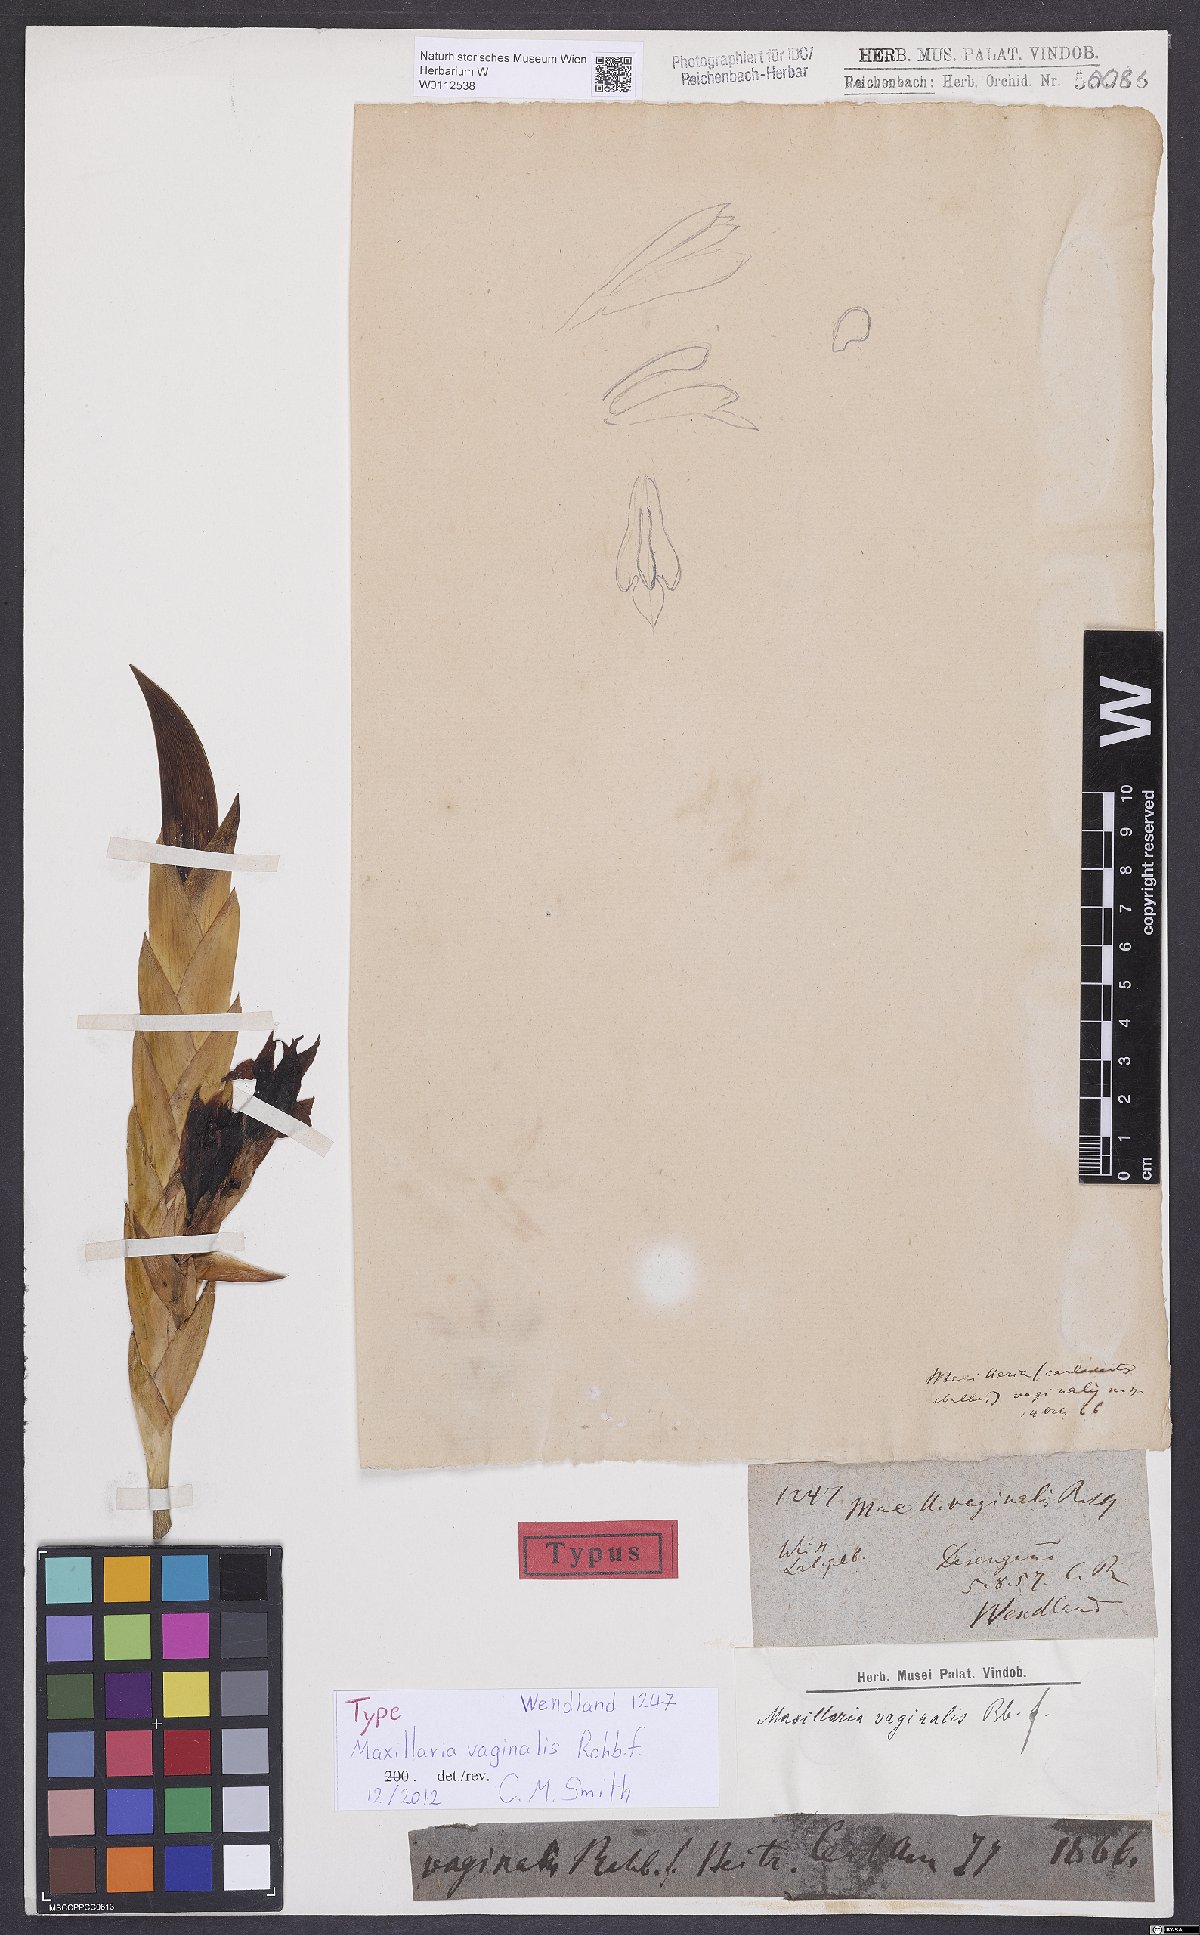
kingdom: Plantae
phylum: Tracheophyta
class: Liliopsida
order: Asparagales
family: Orchidaceae
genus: Maxillaria
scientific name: Maxillaria vaginalis
